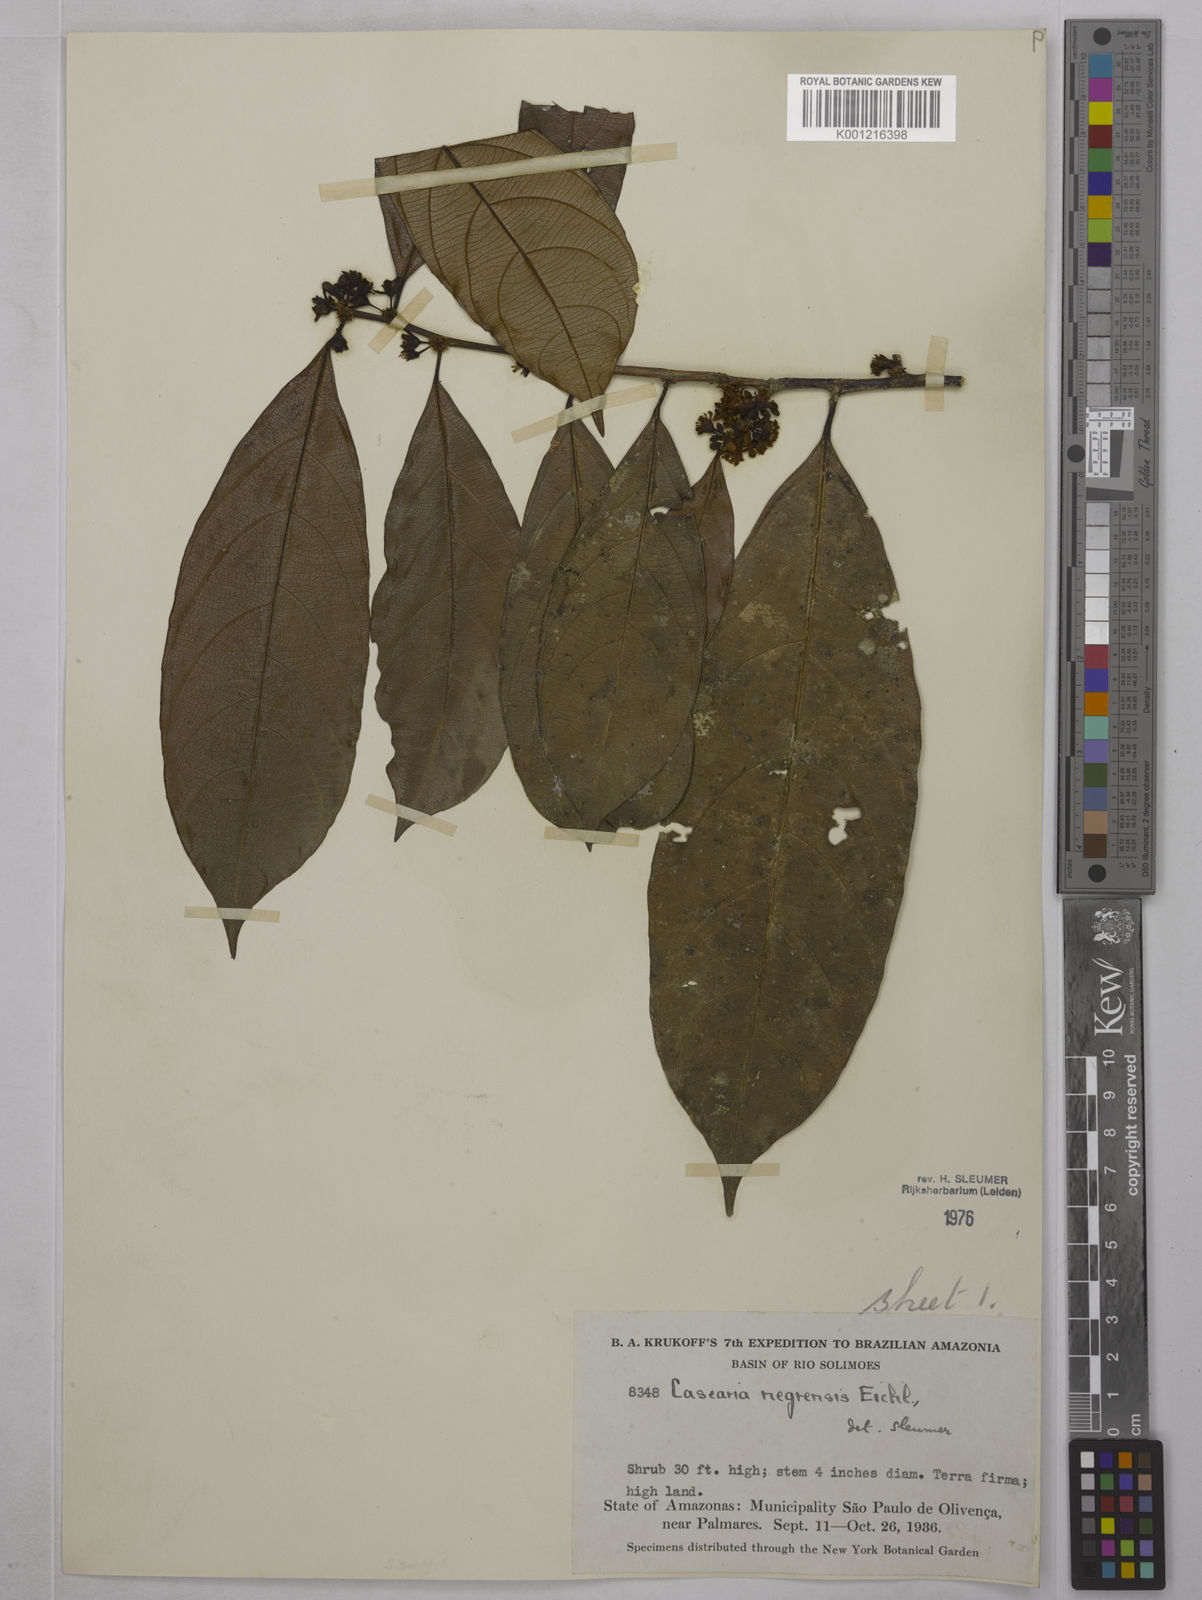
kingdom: Plantae
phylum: Tracheophyta
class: Magnoliopsida
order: Malpighiales
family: Salicaceae
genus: Casearia
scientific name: Casearia negrensis
